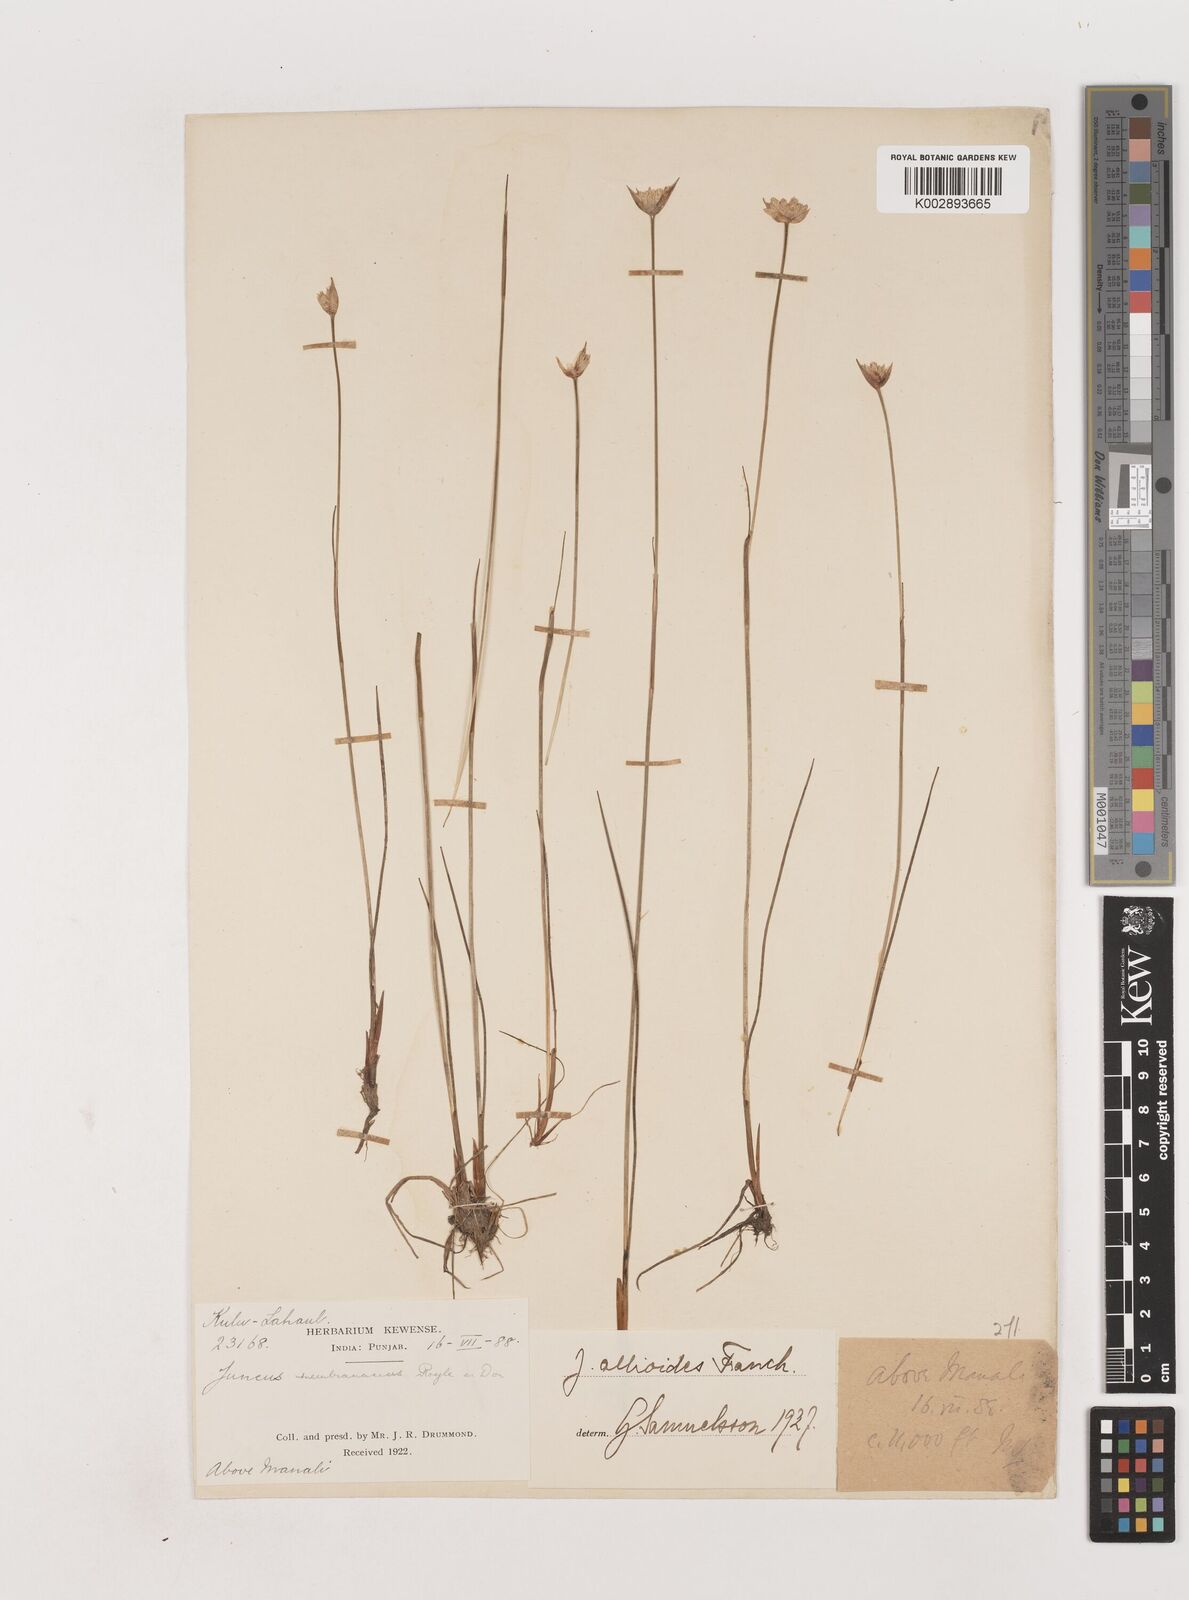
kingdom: Plantae
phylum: Tracheophyta
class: Liliopsida
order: Poales
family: Juncaceae
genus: Juncus
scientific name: Juncus allioides
